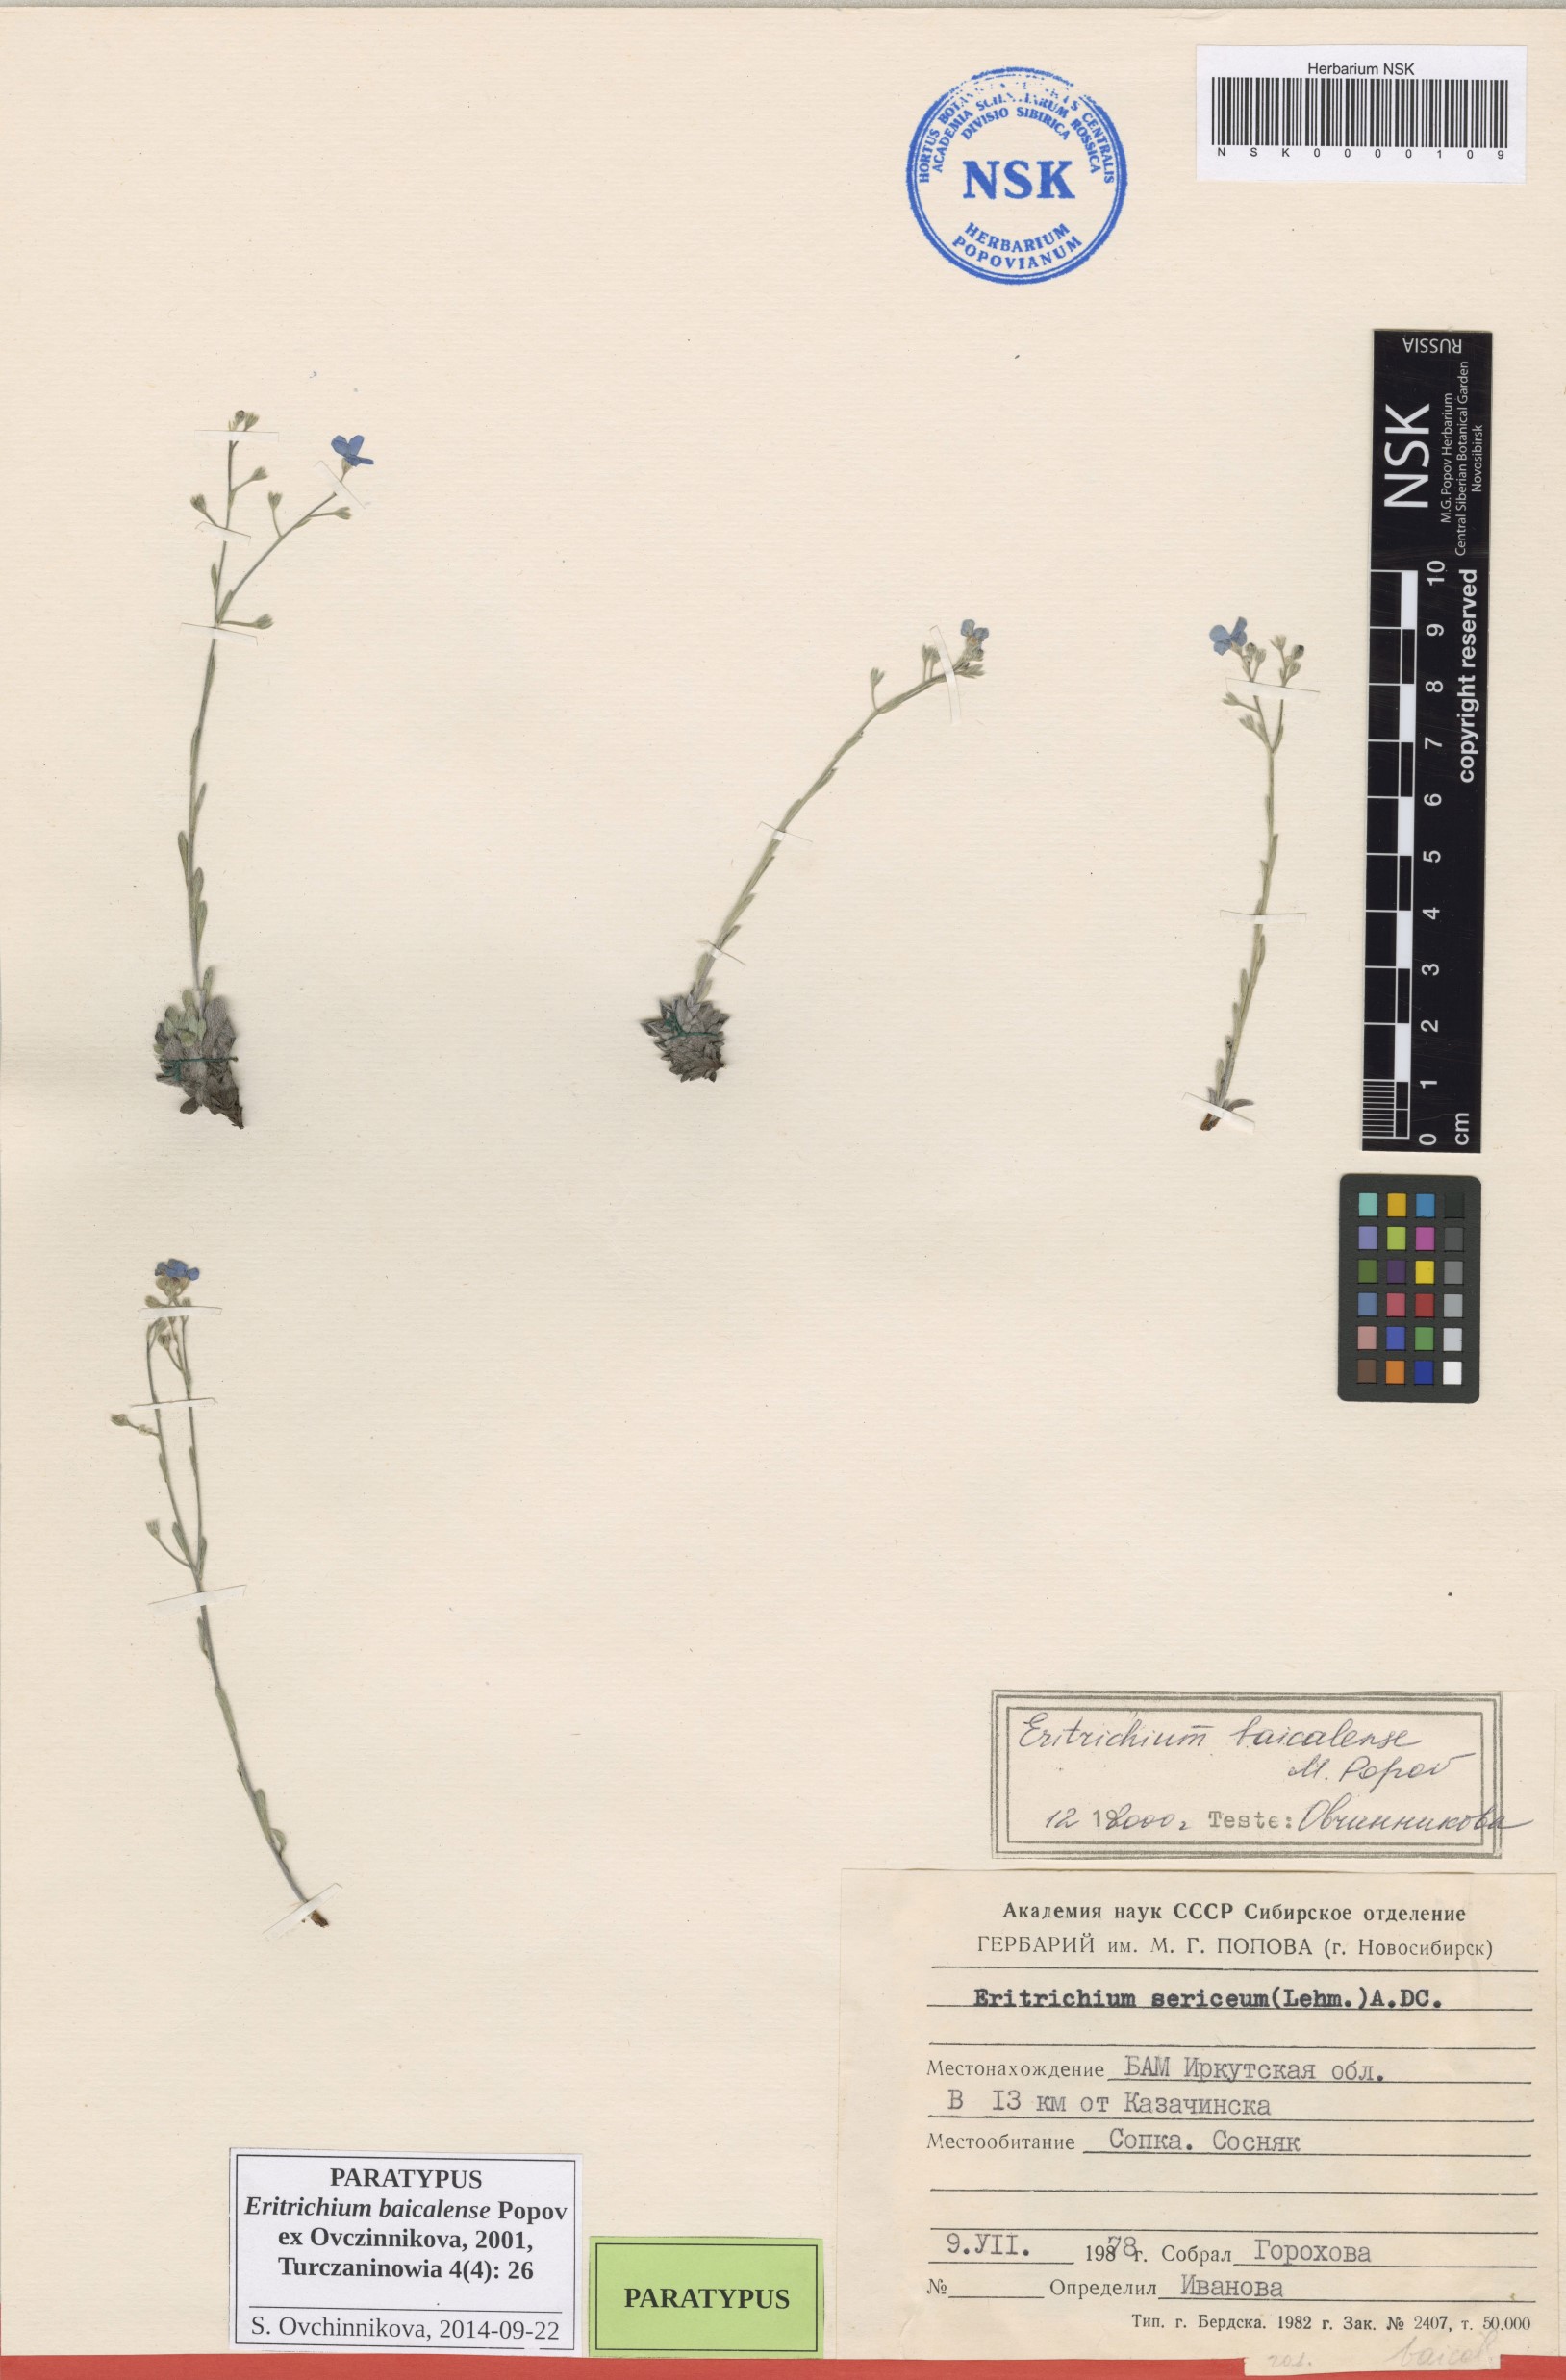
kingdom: Plantae
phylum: Tracheophyta
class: Magnoliopsida
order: Boraginales
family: Boraginaceae
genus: Eritrichium
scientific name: Eritrichium baicalense
